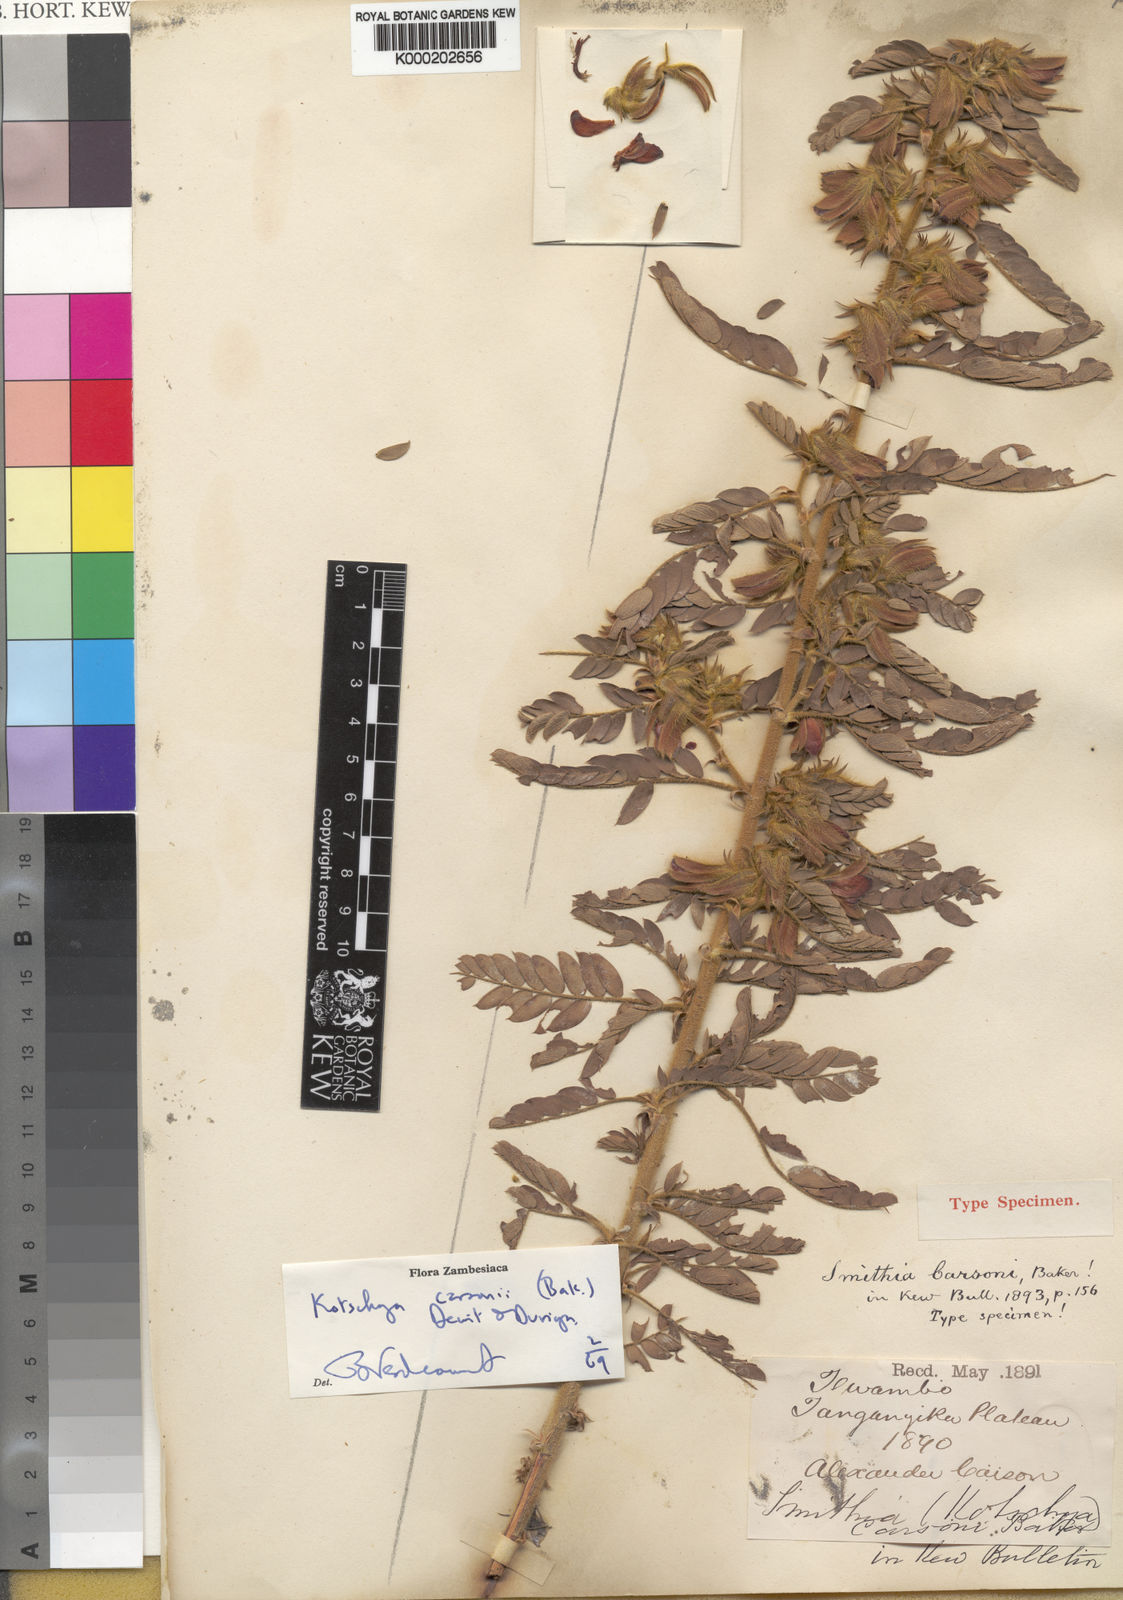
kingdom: Plantae
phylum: Tracheophyta
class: Magnoliopsida
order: Fabales
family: Fabaceae
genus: Kotschya
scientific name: Kotschya carsonii
